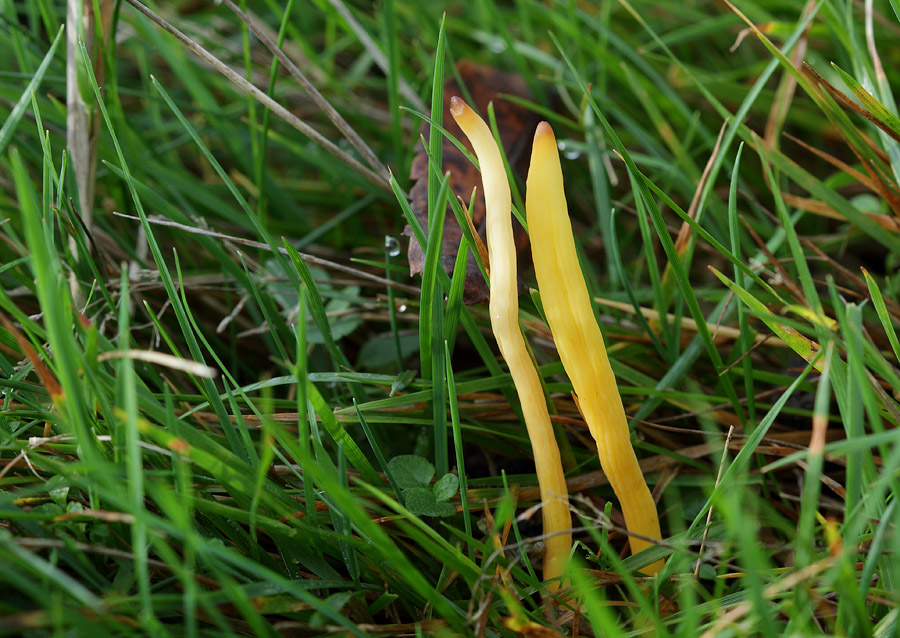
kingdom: Fungi
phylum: Basidiomycota
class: Agaricomycetes
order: Agaricales
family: Clavariaceae
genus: Clavulinopsis
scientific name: Clavulinopsis helvola
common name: orangegul køllesvamp
